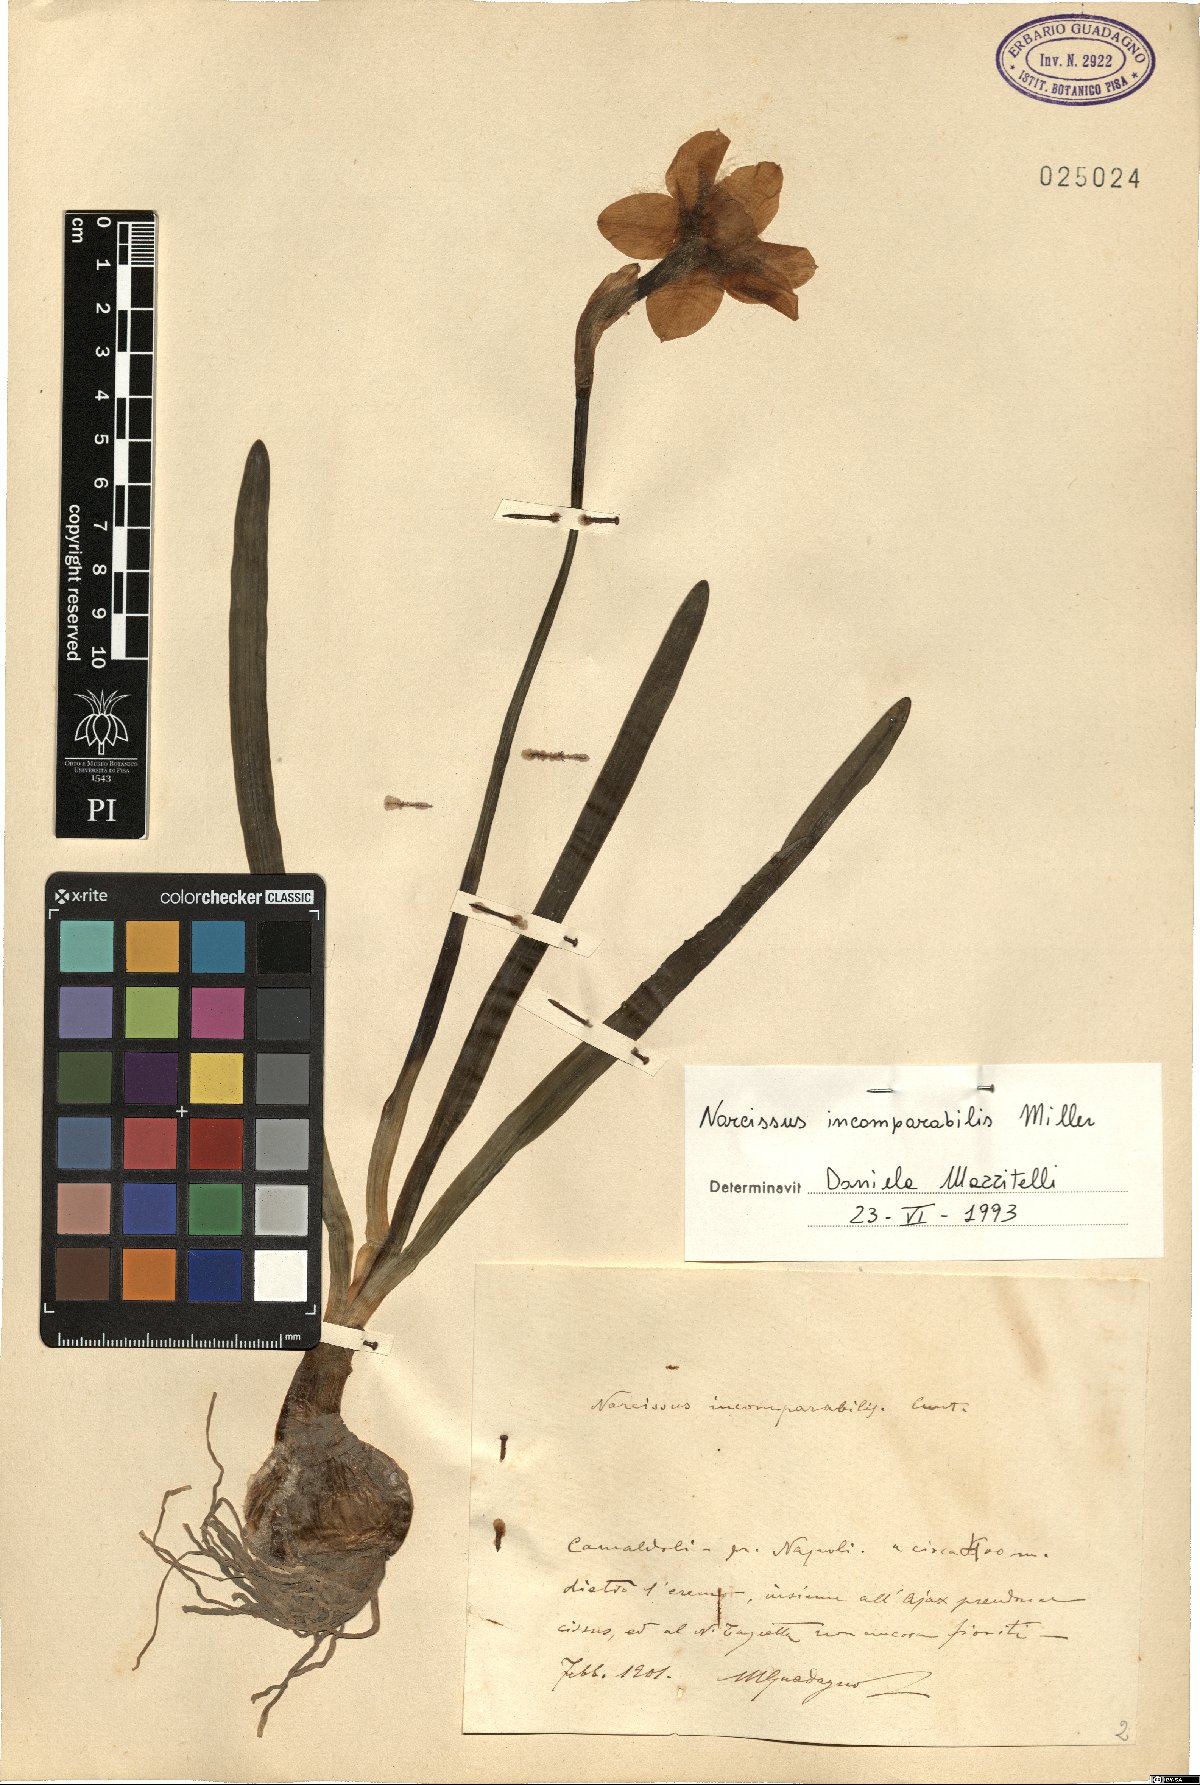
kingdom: Plantae
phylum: Tracheophyta
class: Liliopsida
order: Asparagales
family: Amaryllidaceae
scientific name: Amaryllidaceae
